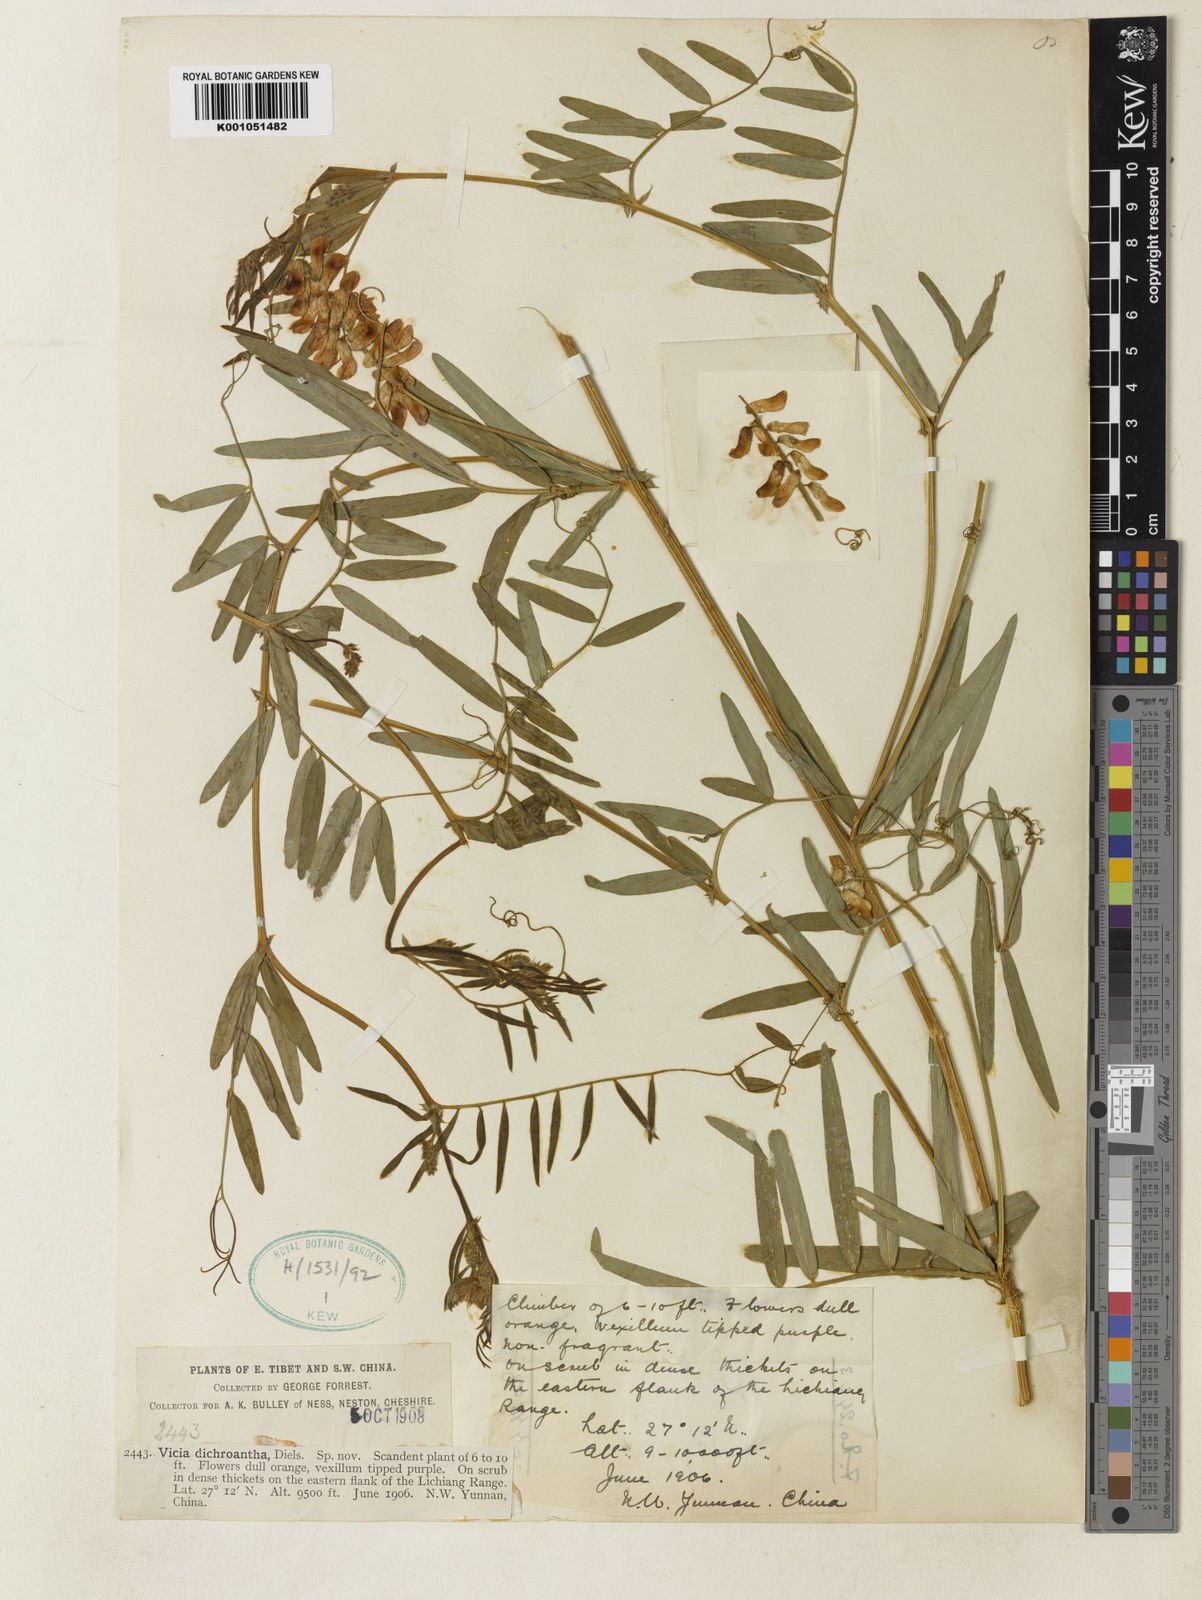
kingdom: Plantae
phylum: Tracheophyta
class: Magnoliopsida
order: Fabales
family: Fabaceae
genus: Vicia
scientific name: Vicia dichroantha
